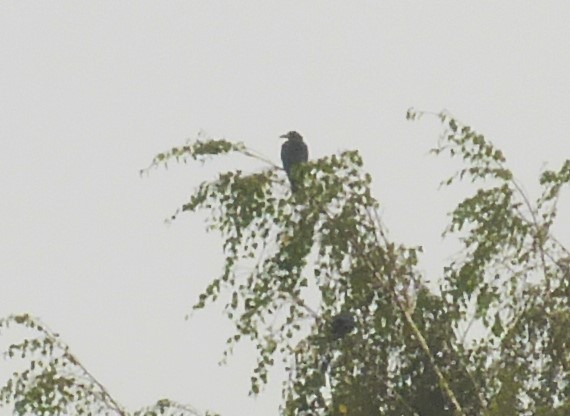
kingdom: Animalia
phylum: Chordata
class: Aves
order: Passeriformes
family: Corvidae
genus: Corvus
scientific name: Corvus frugilegus
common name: Råge
